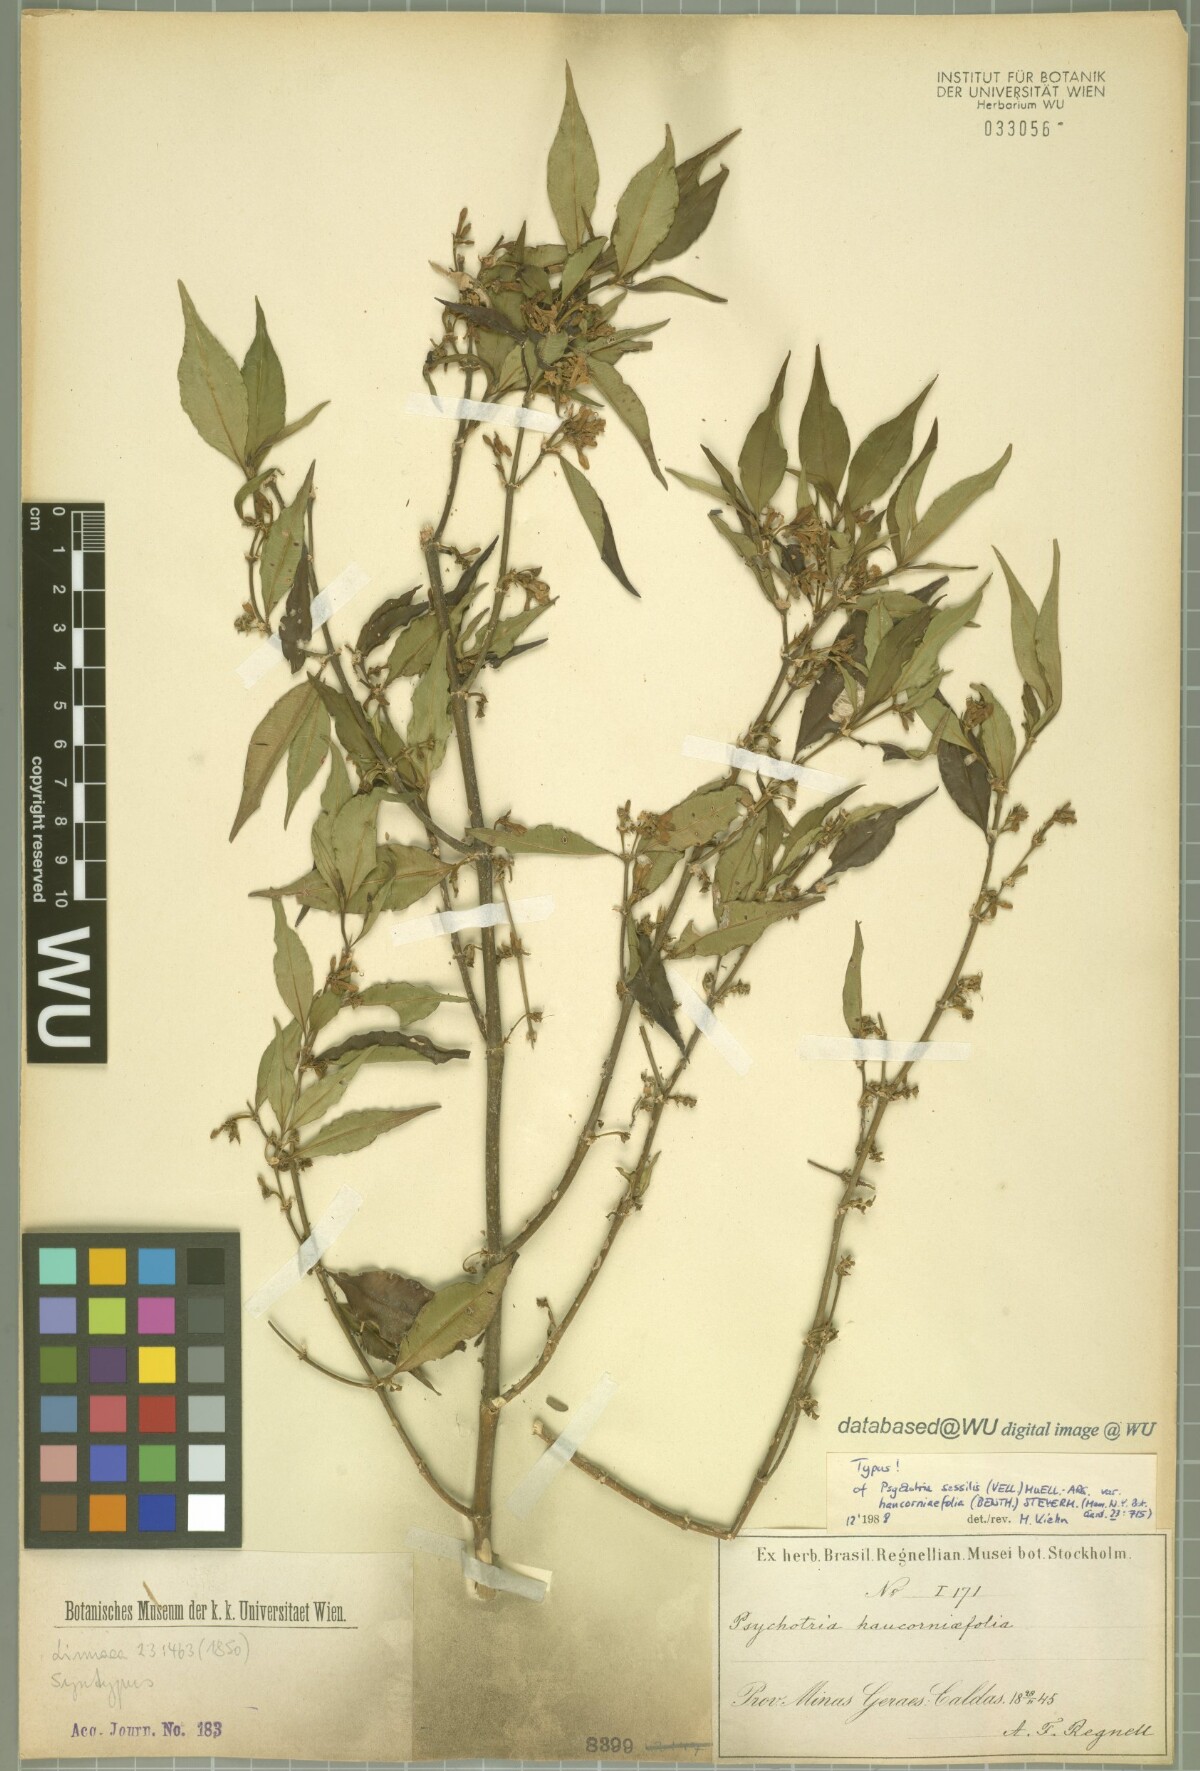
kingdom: Plantae
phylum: Tracheophyta
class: Magnoliopsida
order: Gentianales
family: Rubiaceae
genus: Palicourea
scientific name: Palicourea sessilis
